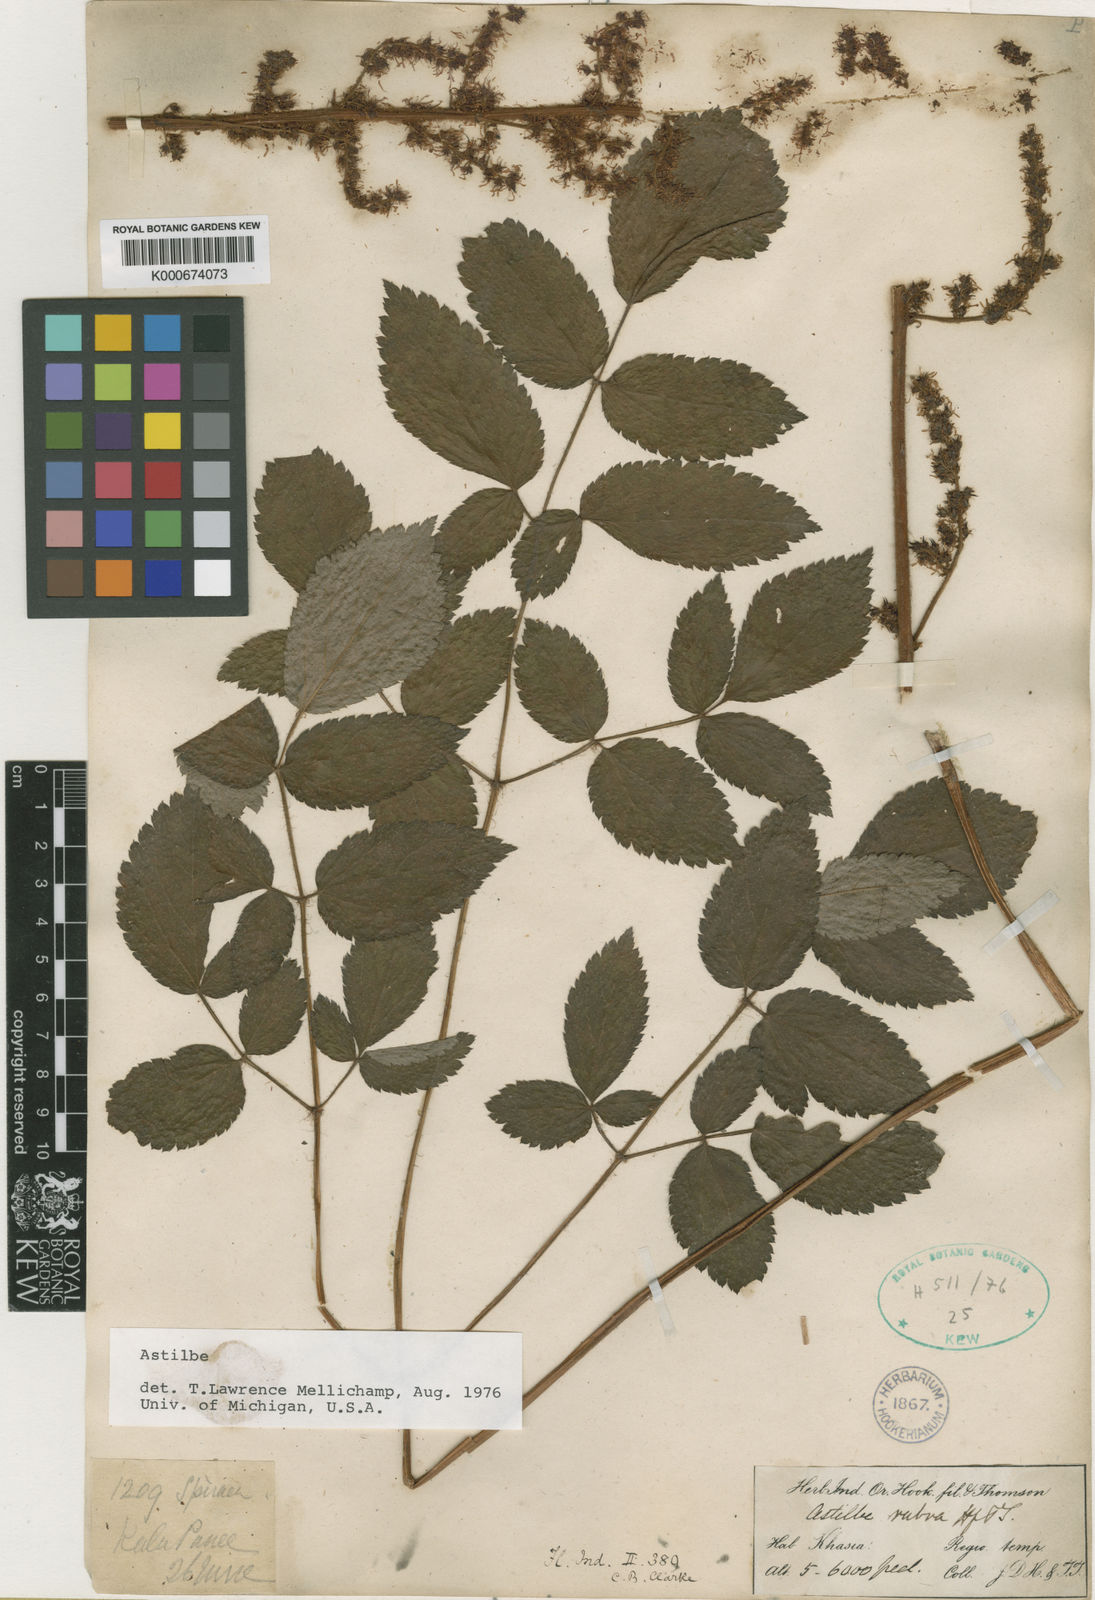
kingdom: Plantae
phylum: Tracheophyta
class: Magnoliopsida
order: Saxifragales
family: Saxifragaceae
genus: Astilbe
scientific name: Astilbe rubra
